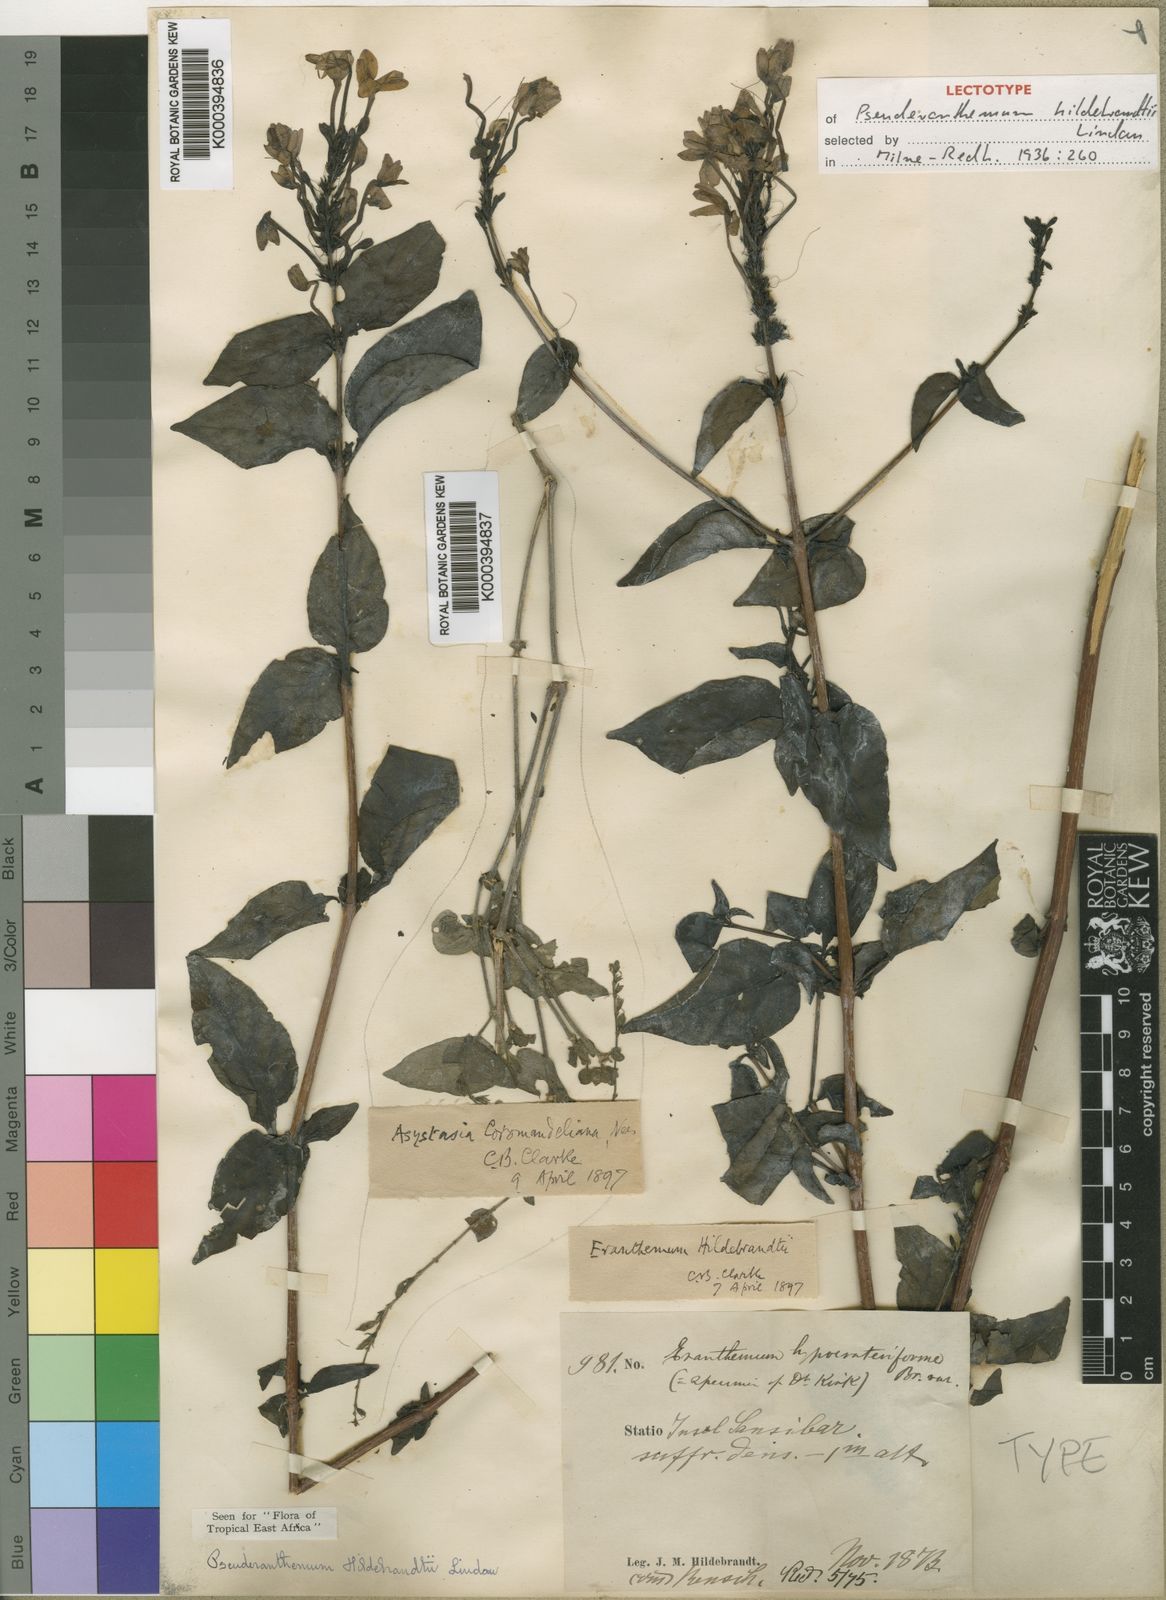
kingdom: Plantae
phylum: Tracheophyta
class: Magnoliopsida
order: Lamiales
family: Acanthaceae
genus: Pseuderanthemum
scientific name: Pseuderanthemum hildebrandtii
